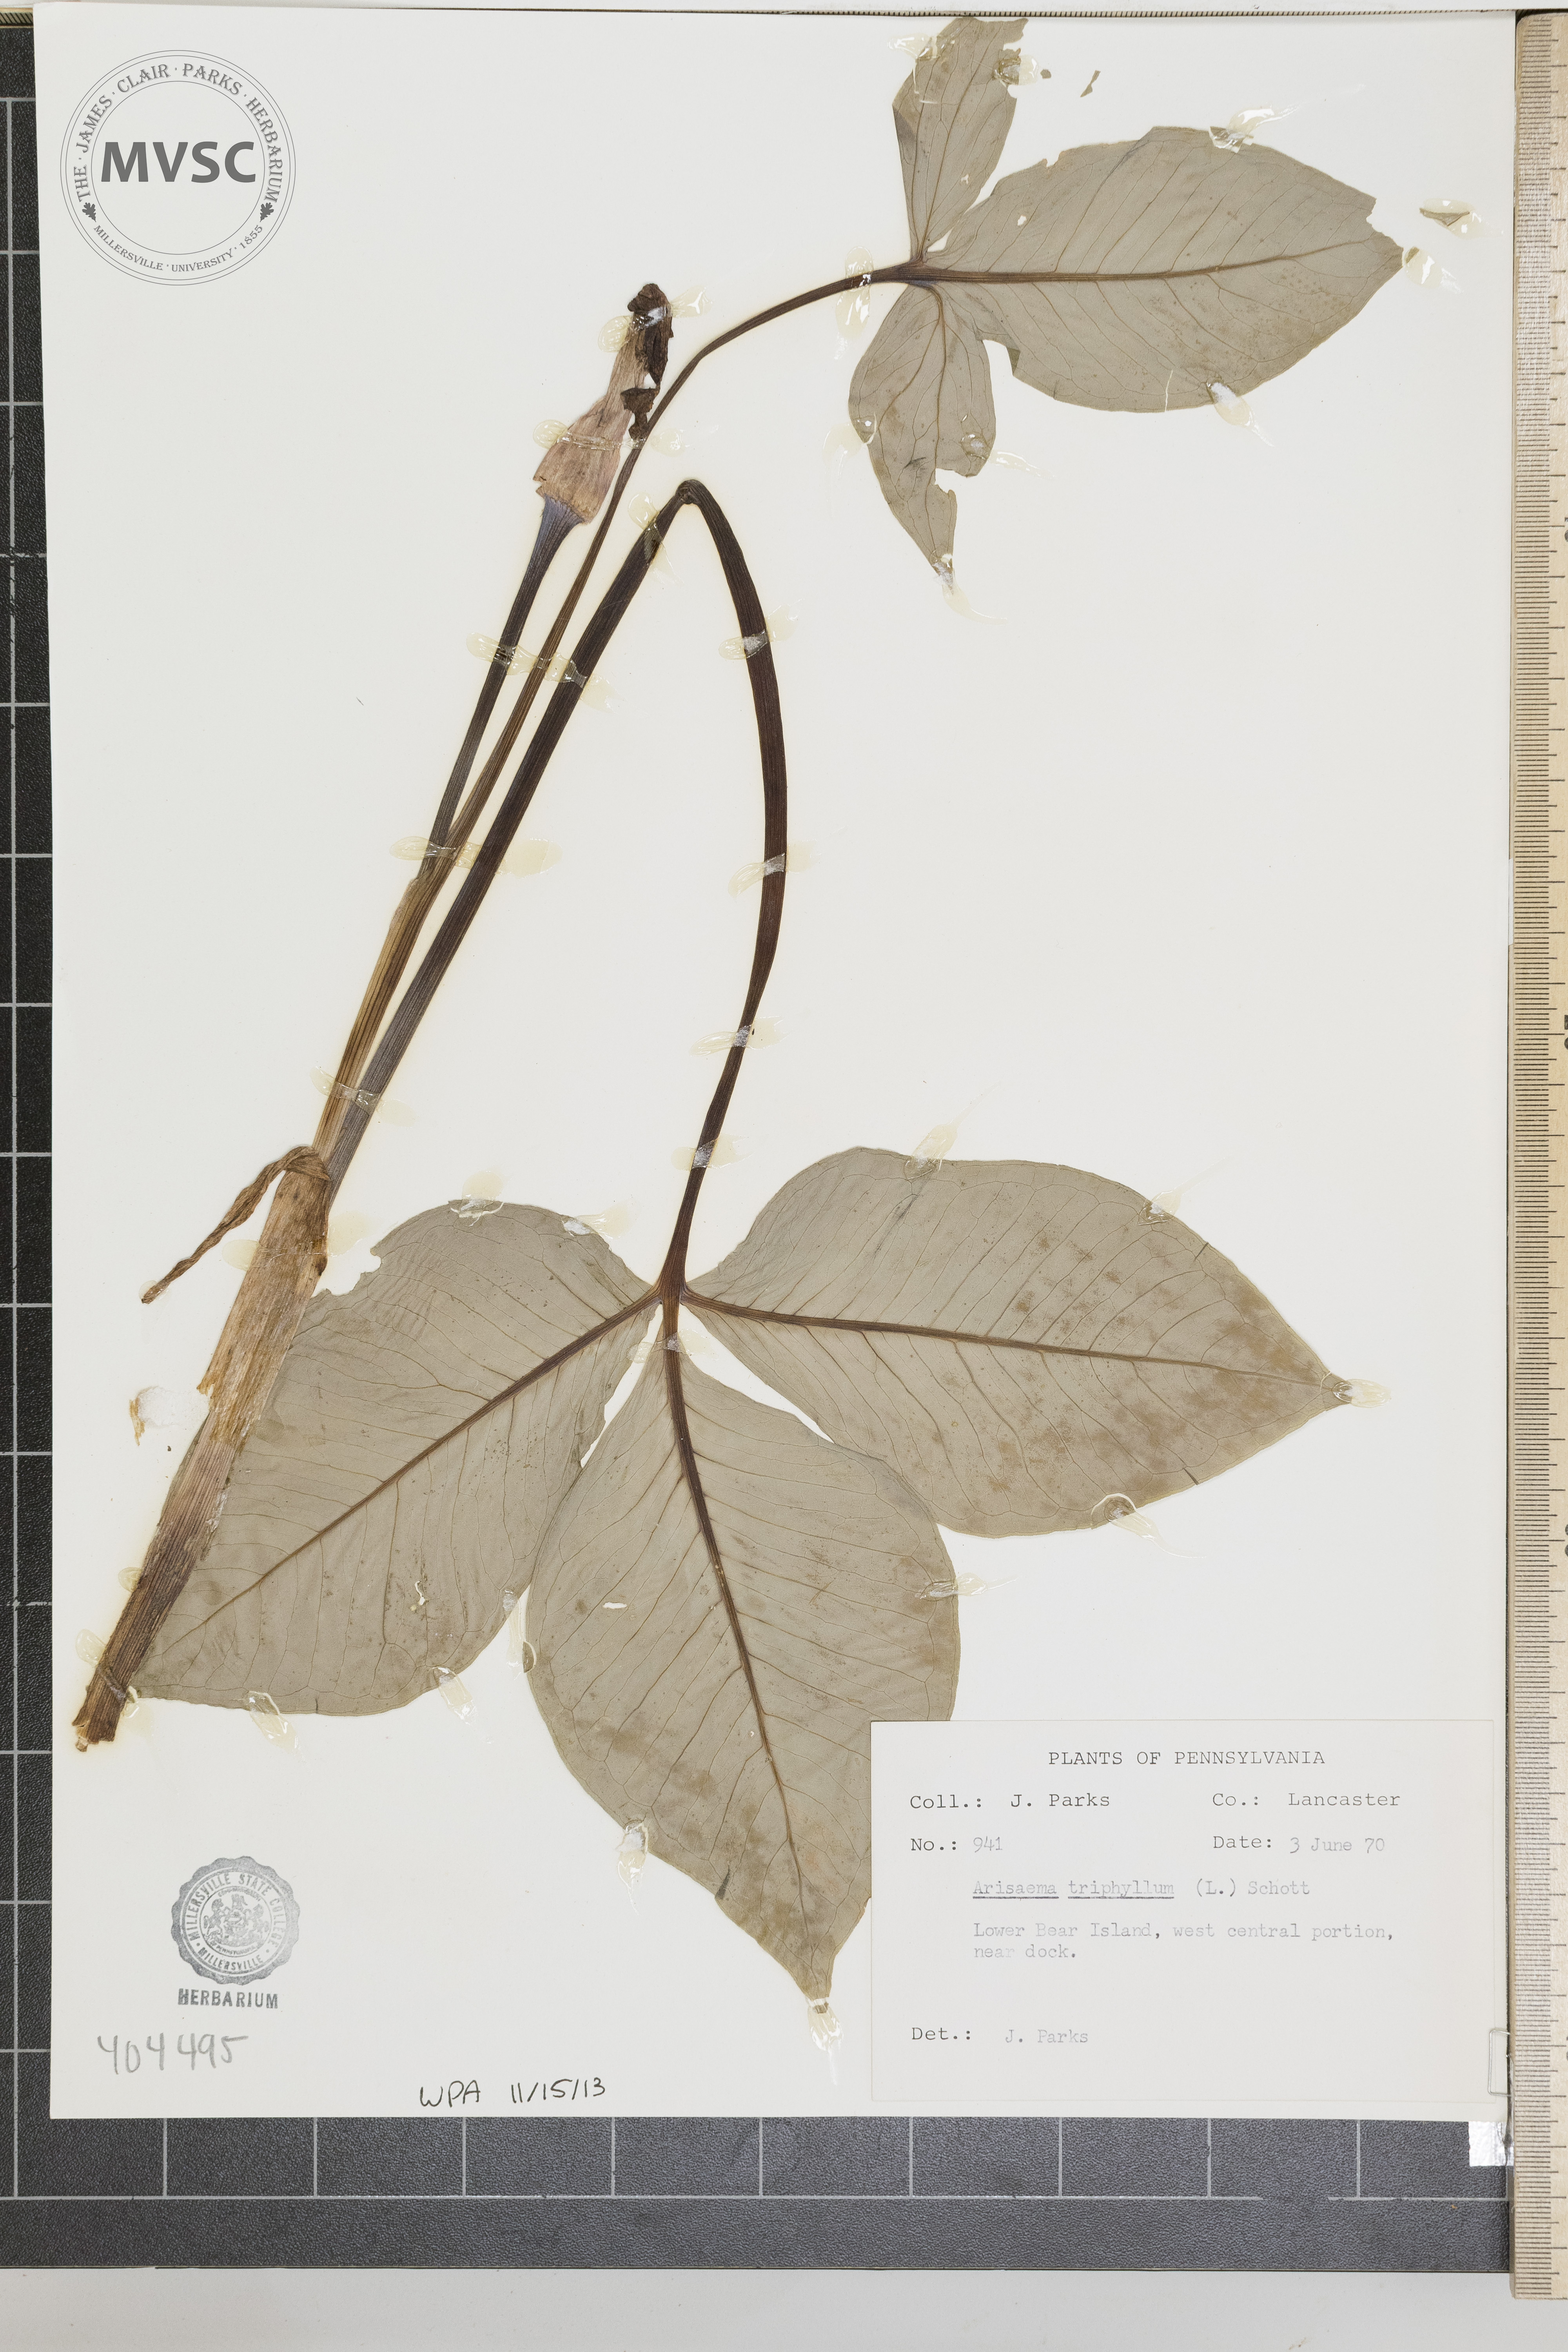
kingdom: Plantae
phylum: Tracheophyta
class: Liliopsida
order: Alismatales
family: Araceae
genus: Arisaema
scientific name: Arisaema triphyllum
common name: Jack-in-the-pulpit
